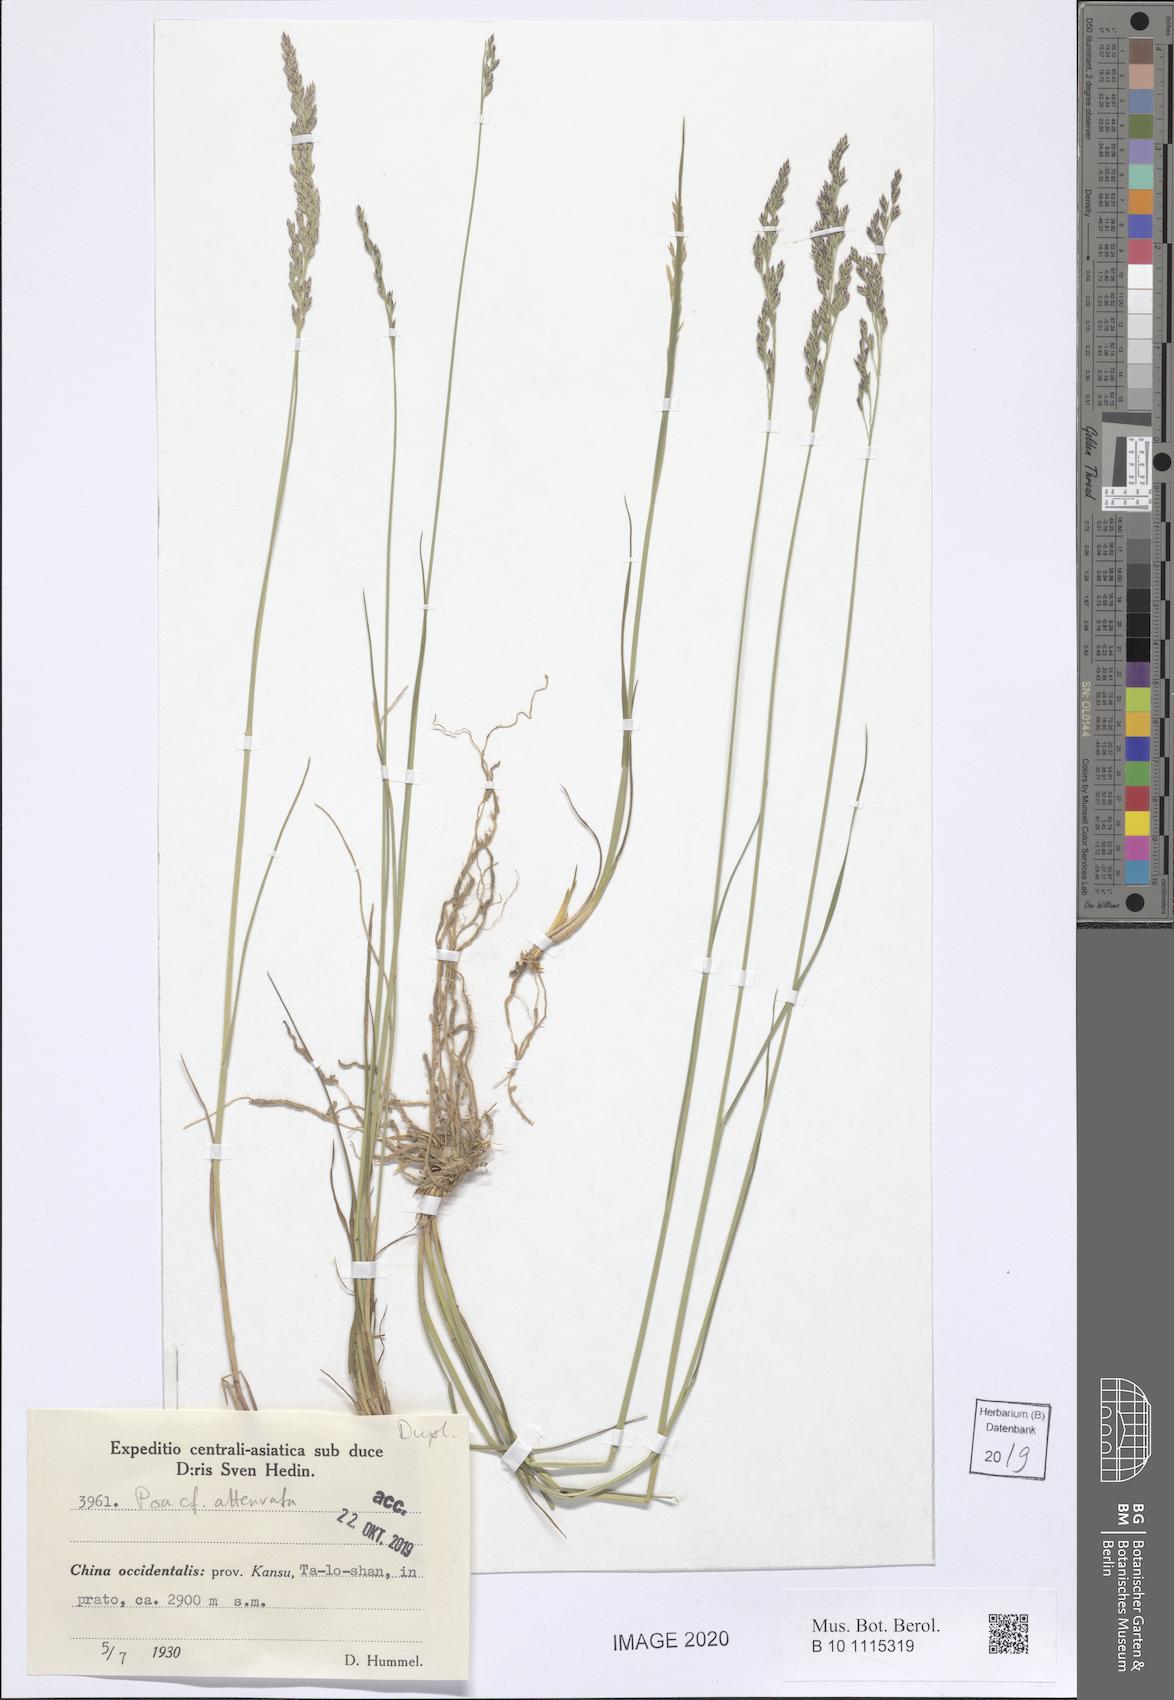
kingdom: Plantae
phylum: Tracheophyta
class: Liliopsida
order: Poales
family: Poaceae
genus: Poa
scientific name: Poa attenuata
